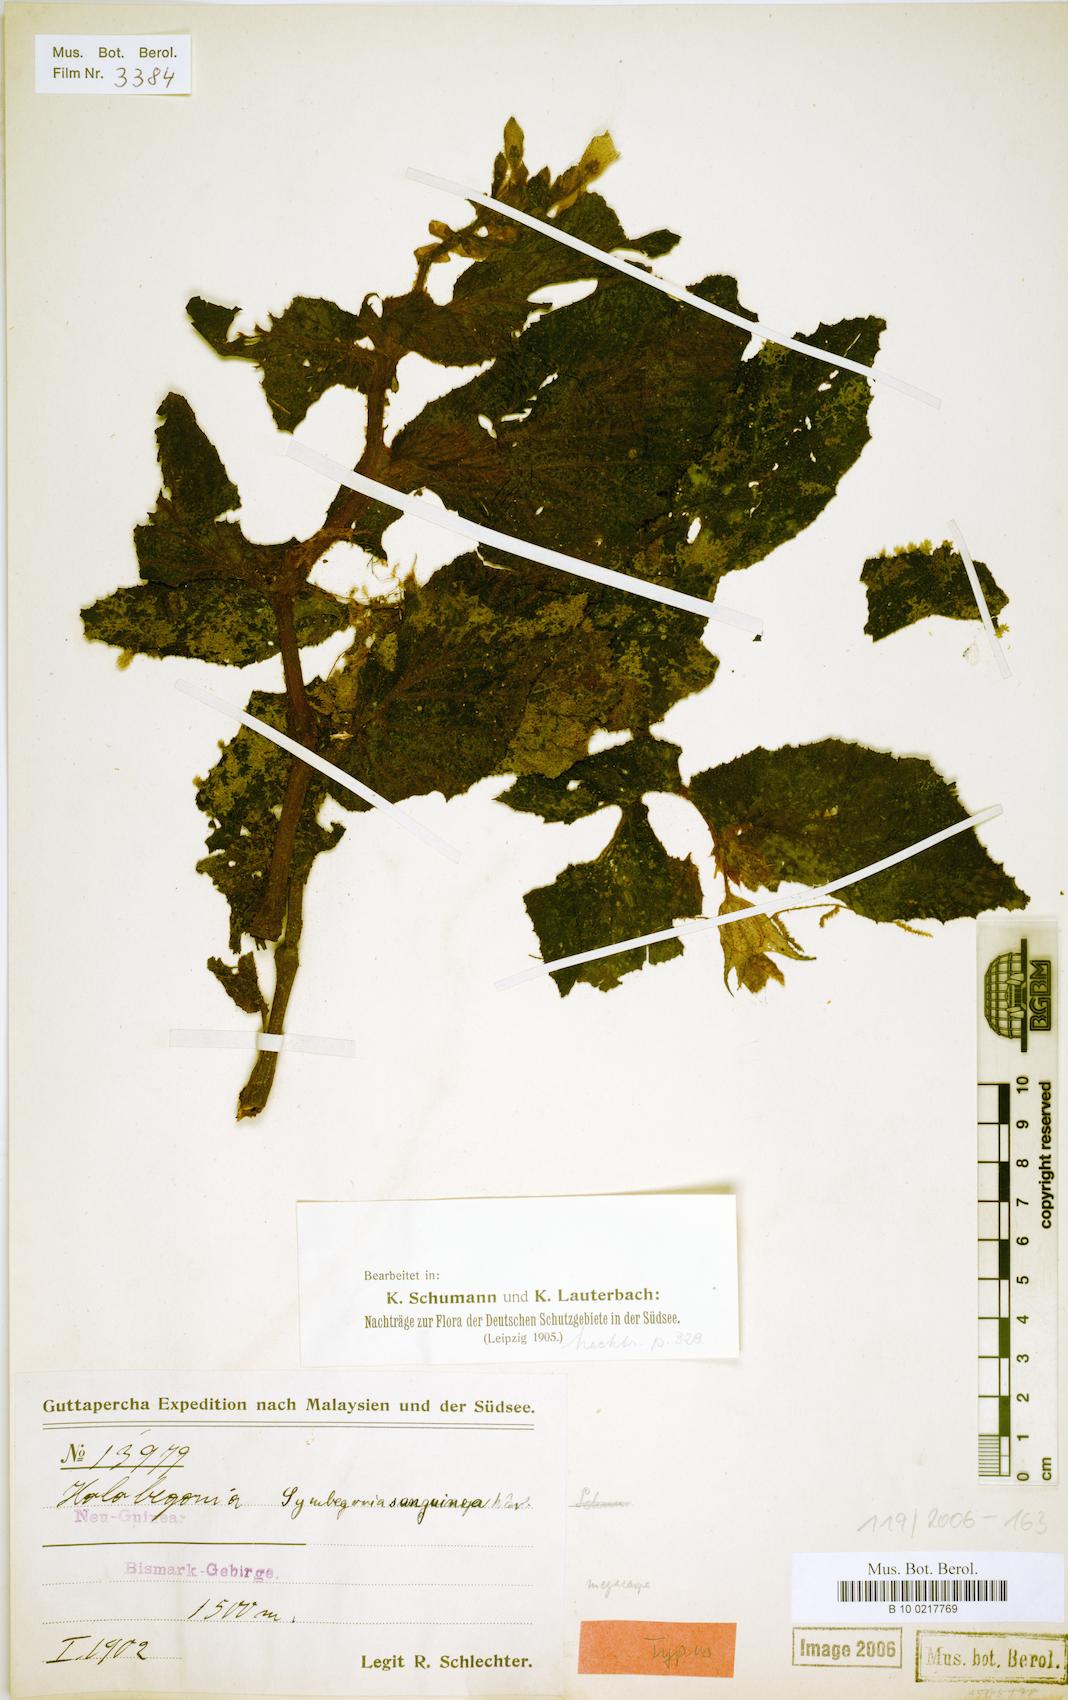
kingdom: Plantae
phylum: Tracheophyta
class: Magnoliopsida
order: Cucurbitales
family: Begoniaceae
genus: Begonia
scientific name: Begonia symsanguinea
